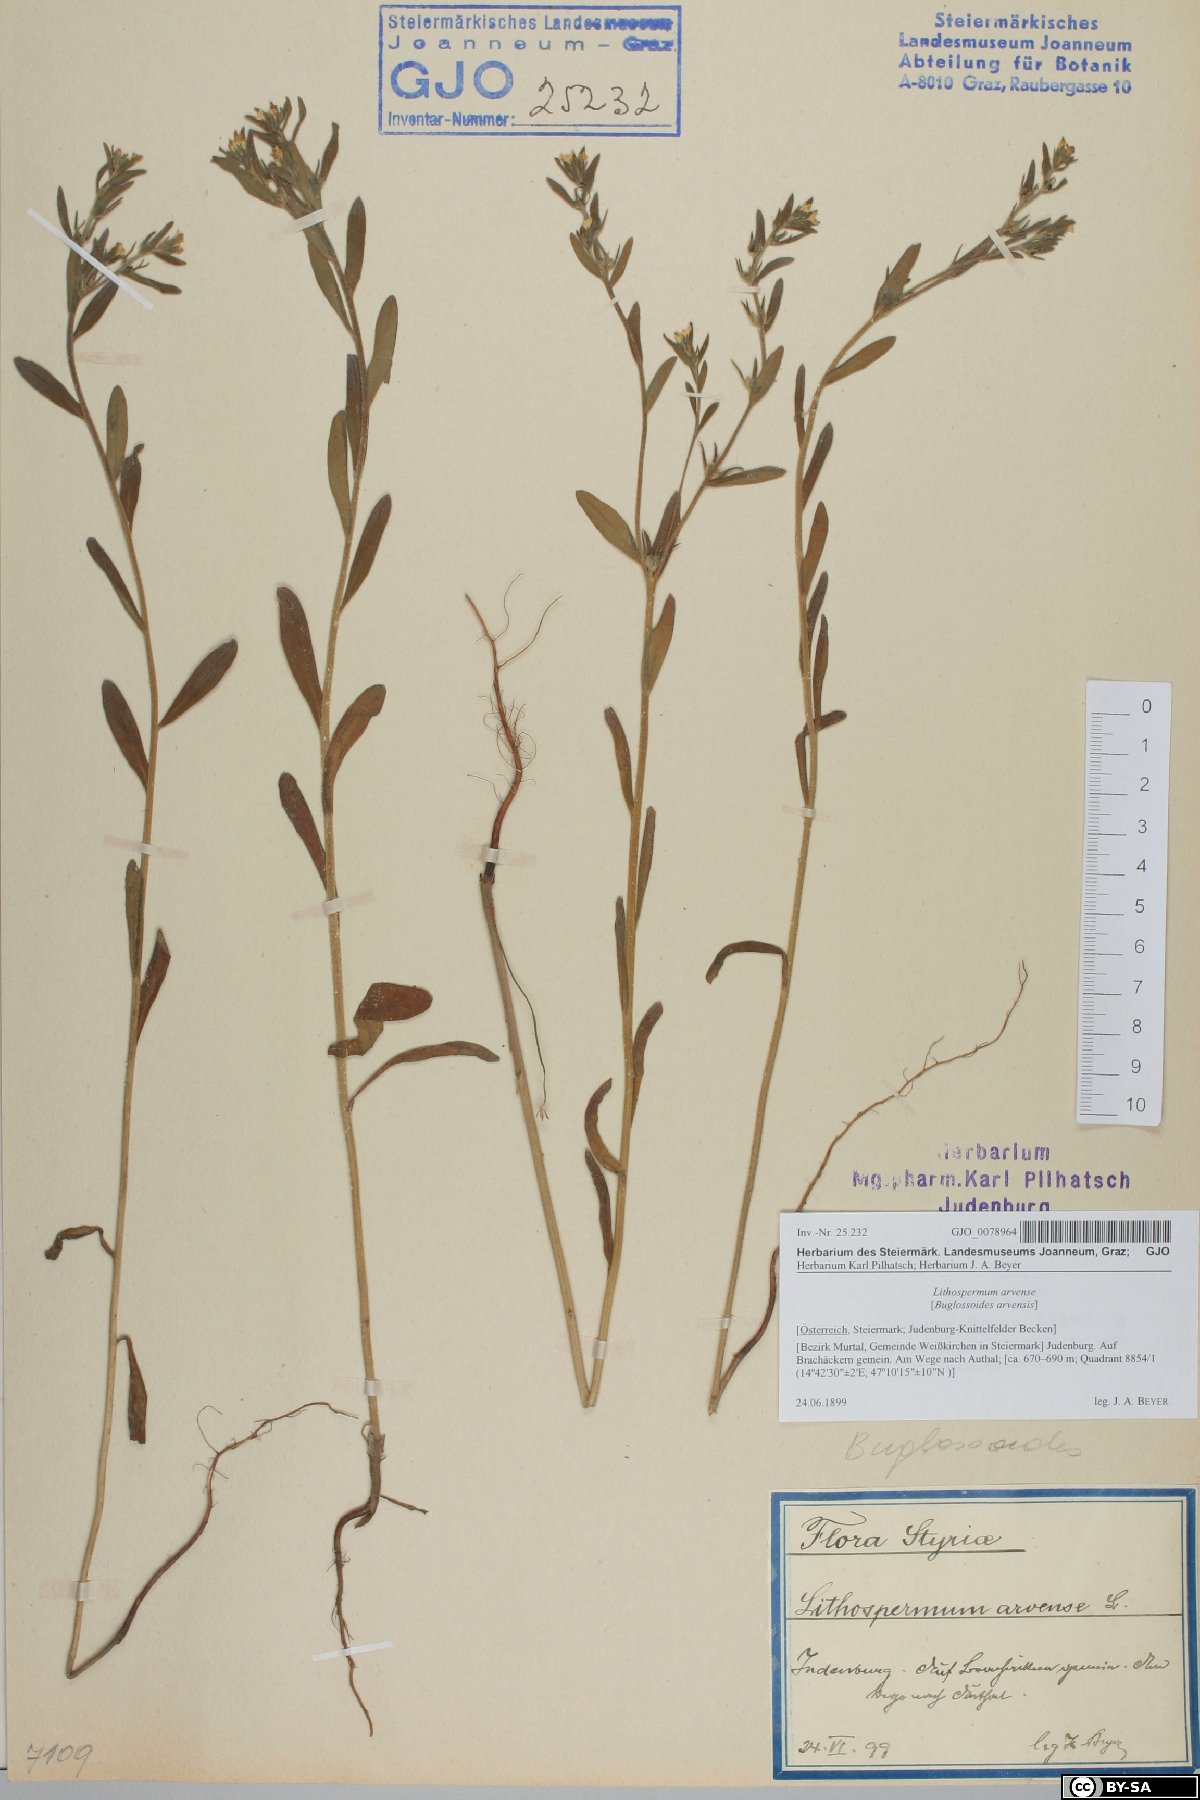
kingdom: Plantae
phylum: Tracheophyta
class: Magnoliopsida
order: Boraginales
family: Boraginaceae
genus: Buglossoides
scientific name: Buglossoides arvensis
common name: Corn gromwell
